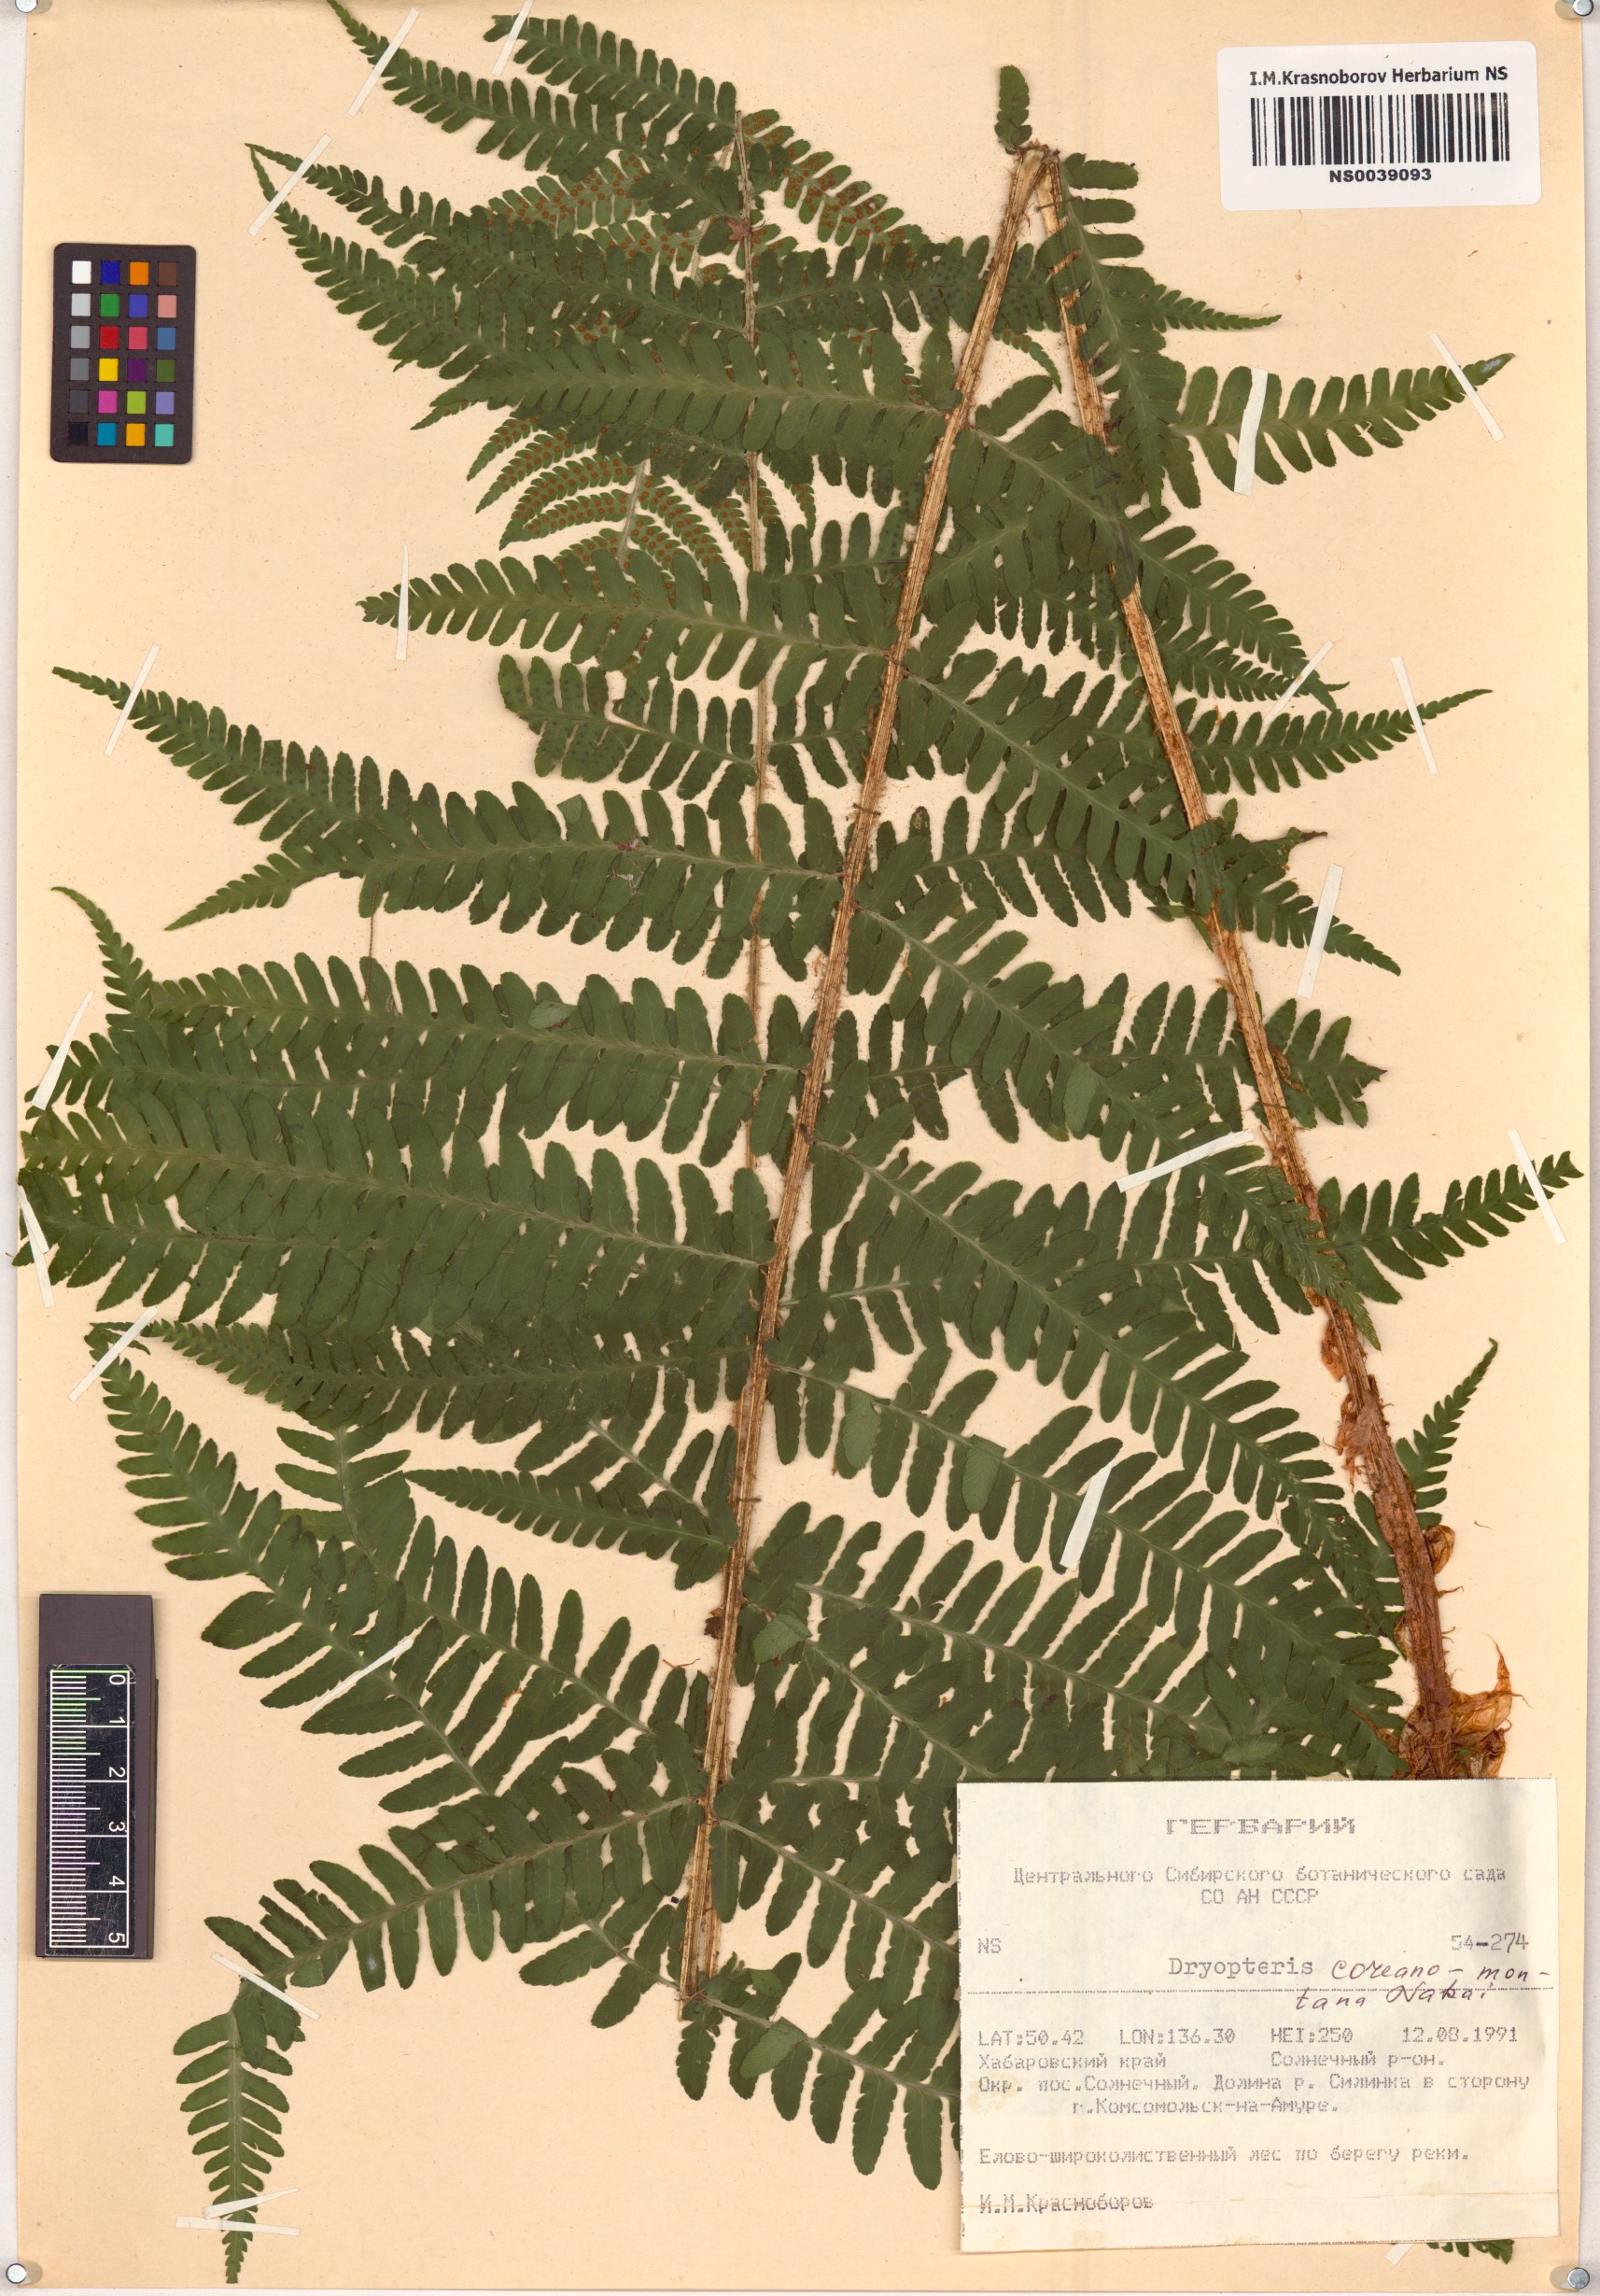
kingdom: Plantae
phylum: Tracheophyta
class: Polypodiopsida
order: Polypodiales
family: Dryopteridaceae
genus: Dryopteris
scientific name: Dryopteris sichotensis
